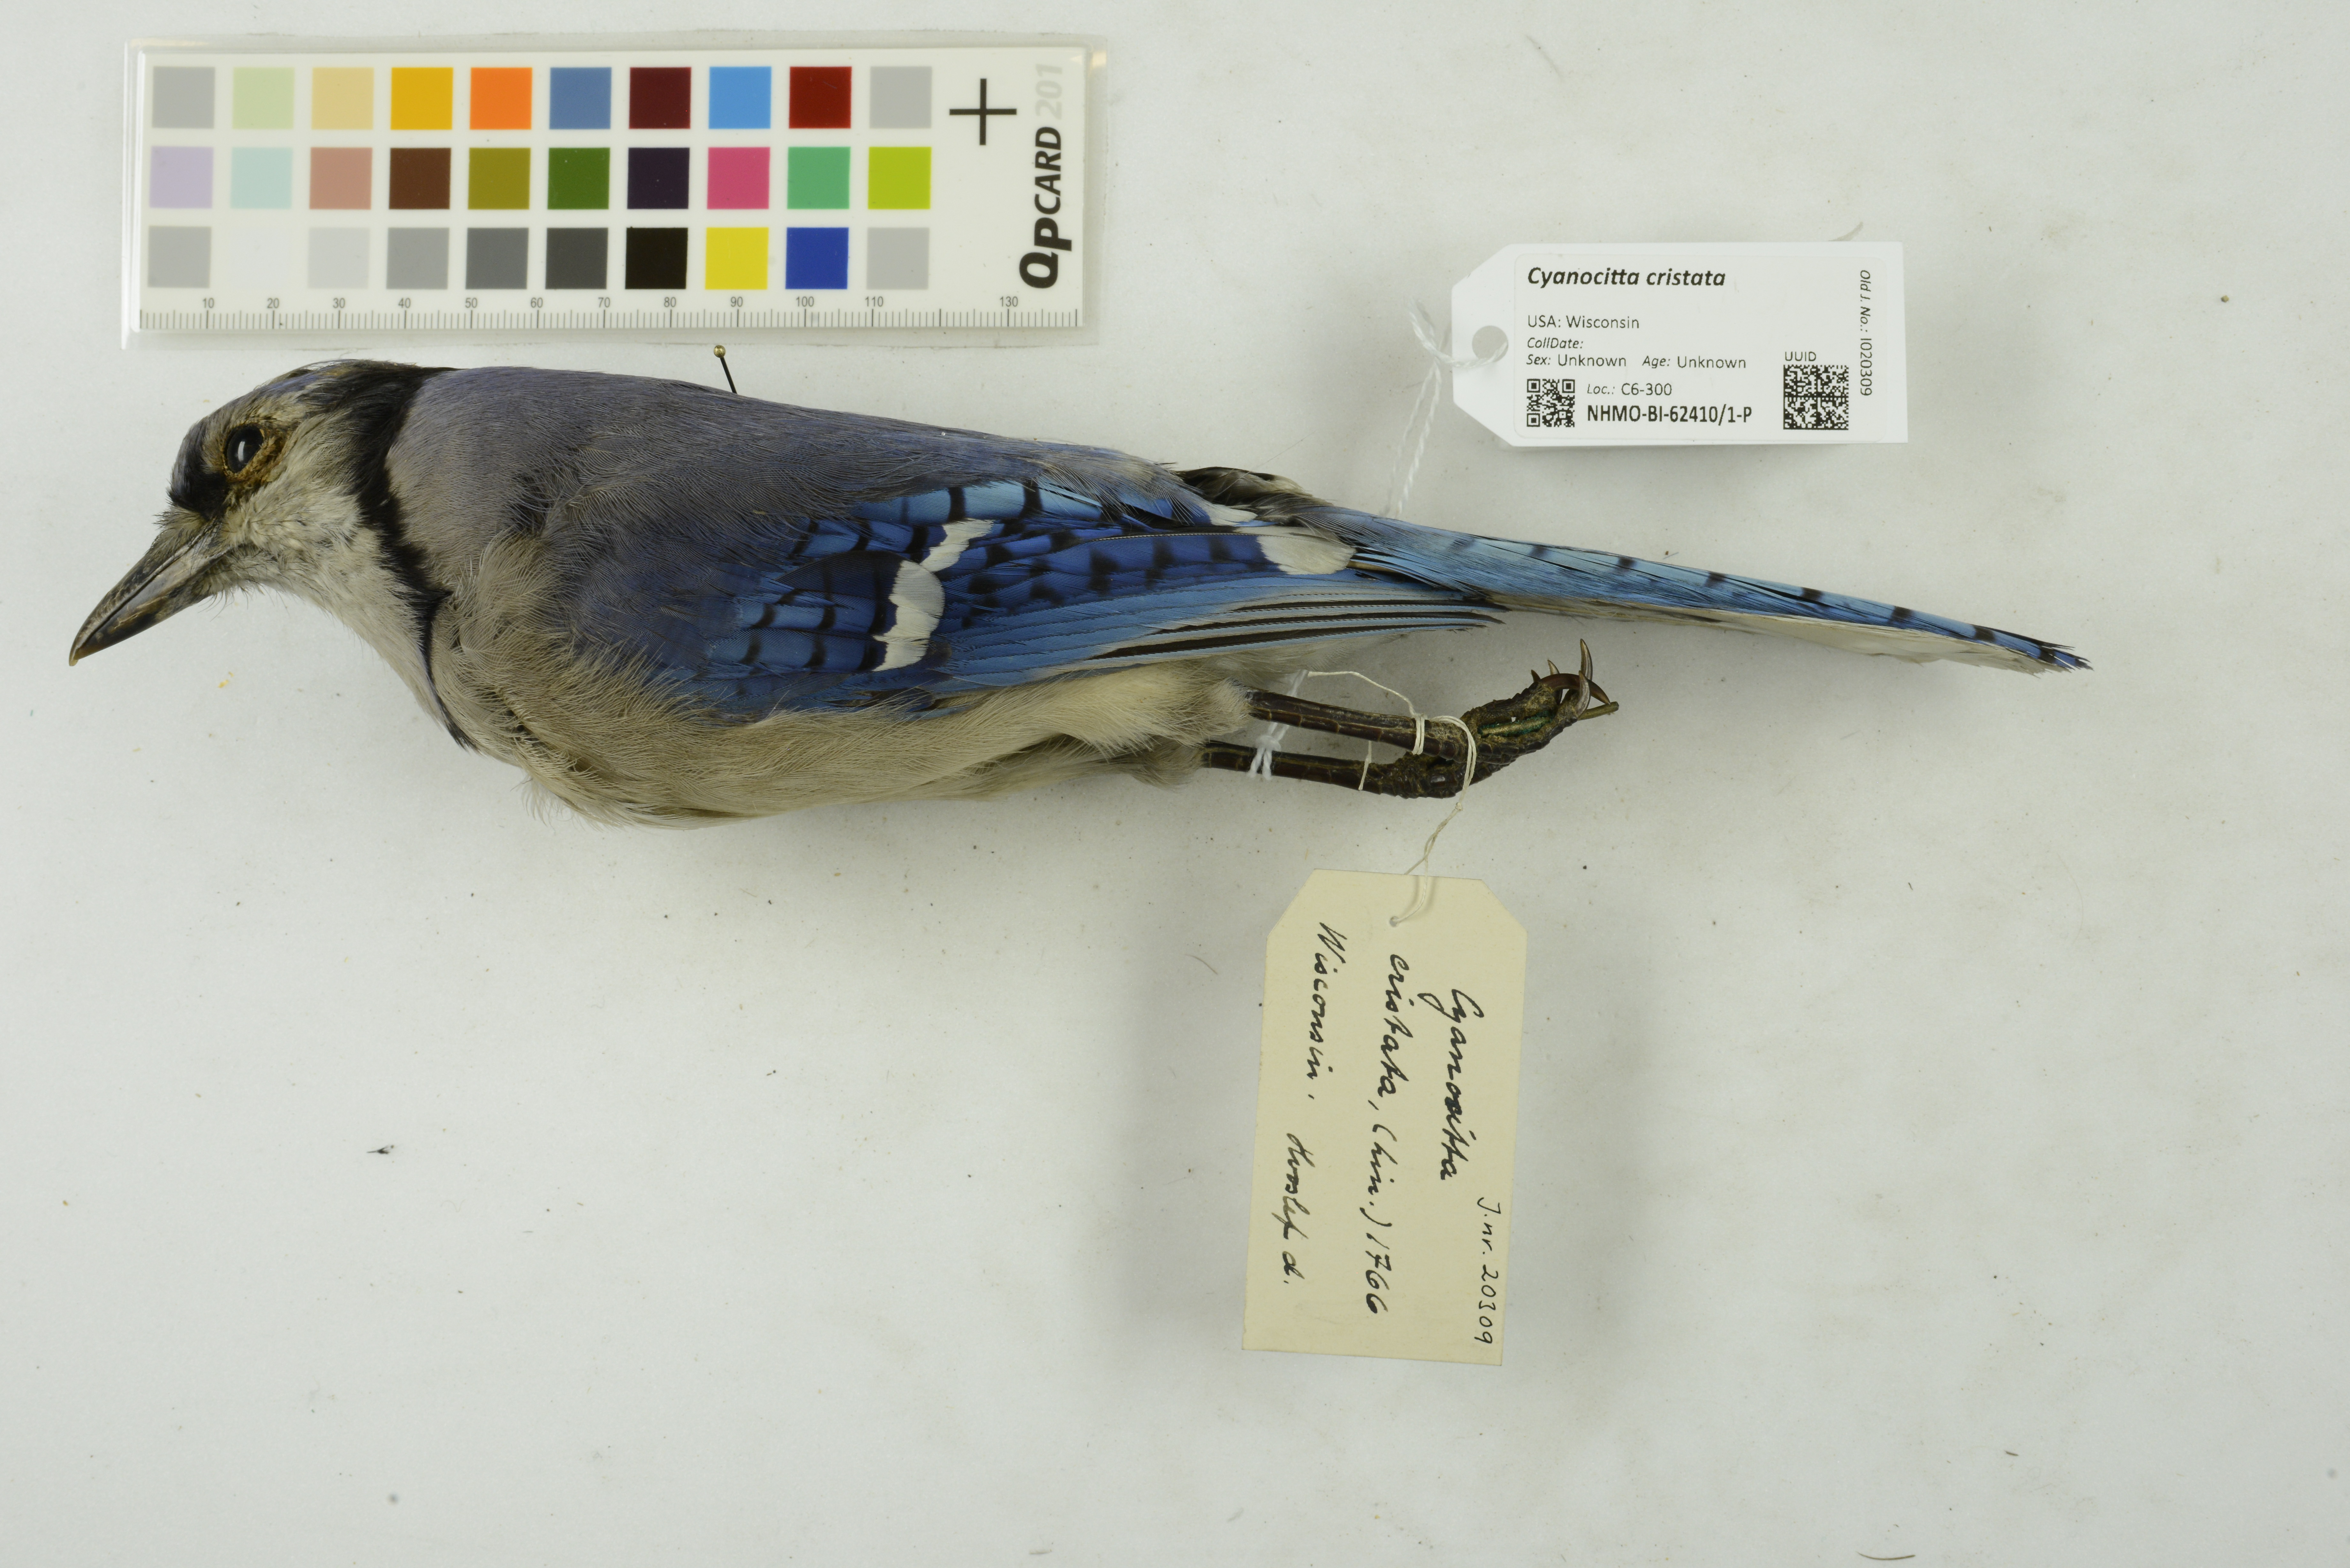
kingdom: Animalia
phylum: Chordata
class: Aves
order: Passeriformes
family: Corvidae
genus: Cyanocitta
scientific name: Cyanocitta cristata
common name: Blue jay
